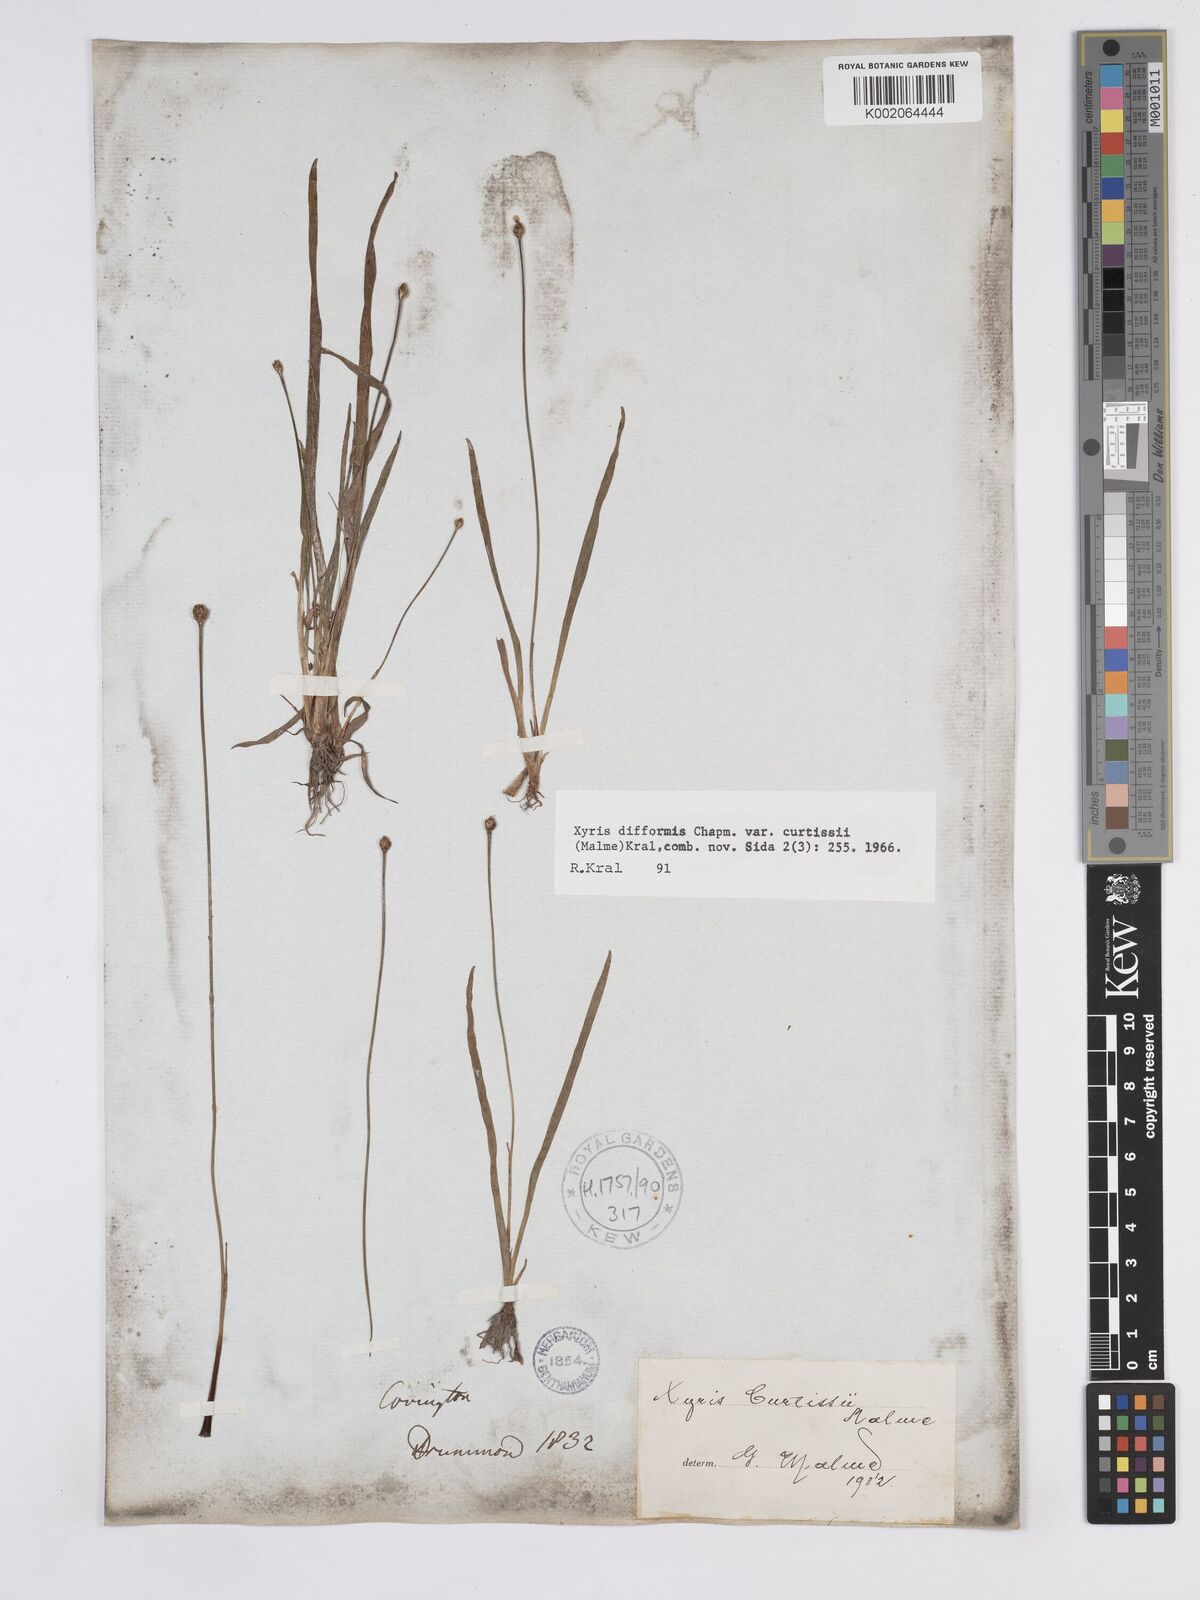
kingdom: Plantae
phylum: Tracheophyta
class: Liliopsida
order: Poales
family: Xyridaceae
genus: Xyris
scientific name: Xyris difformis
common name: Bog yellow-eyed-grass
